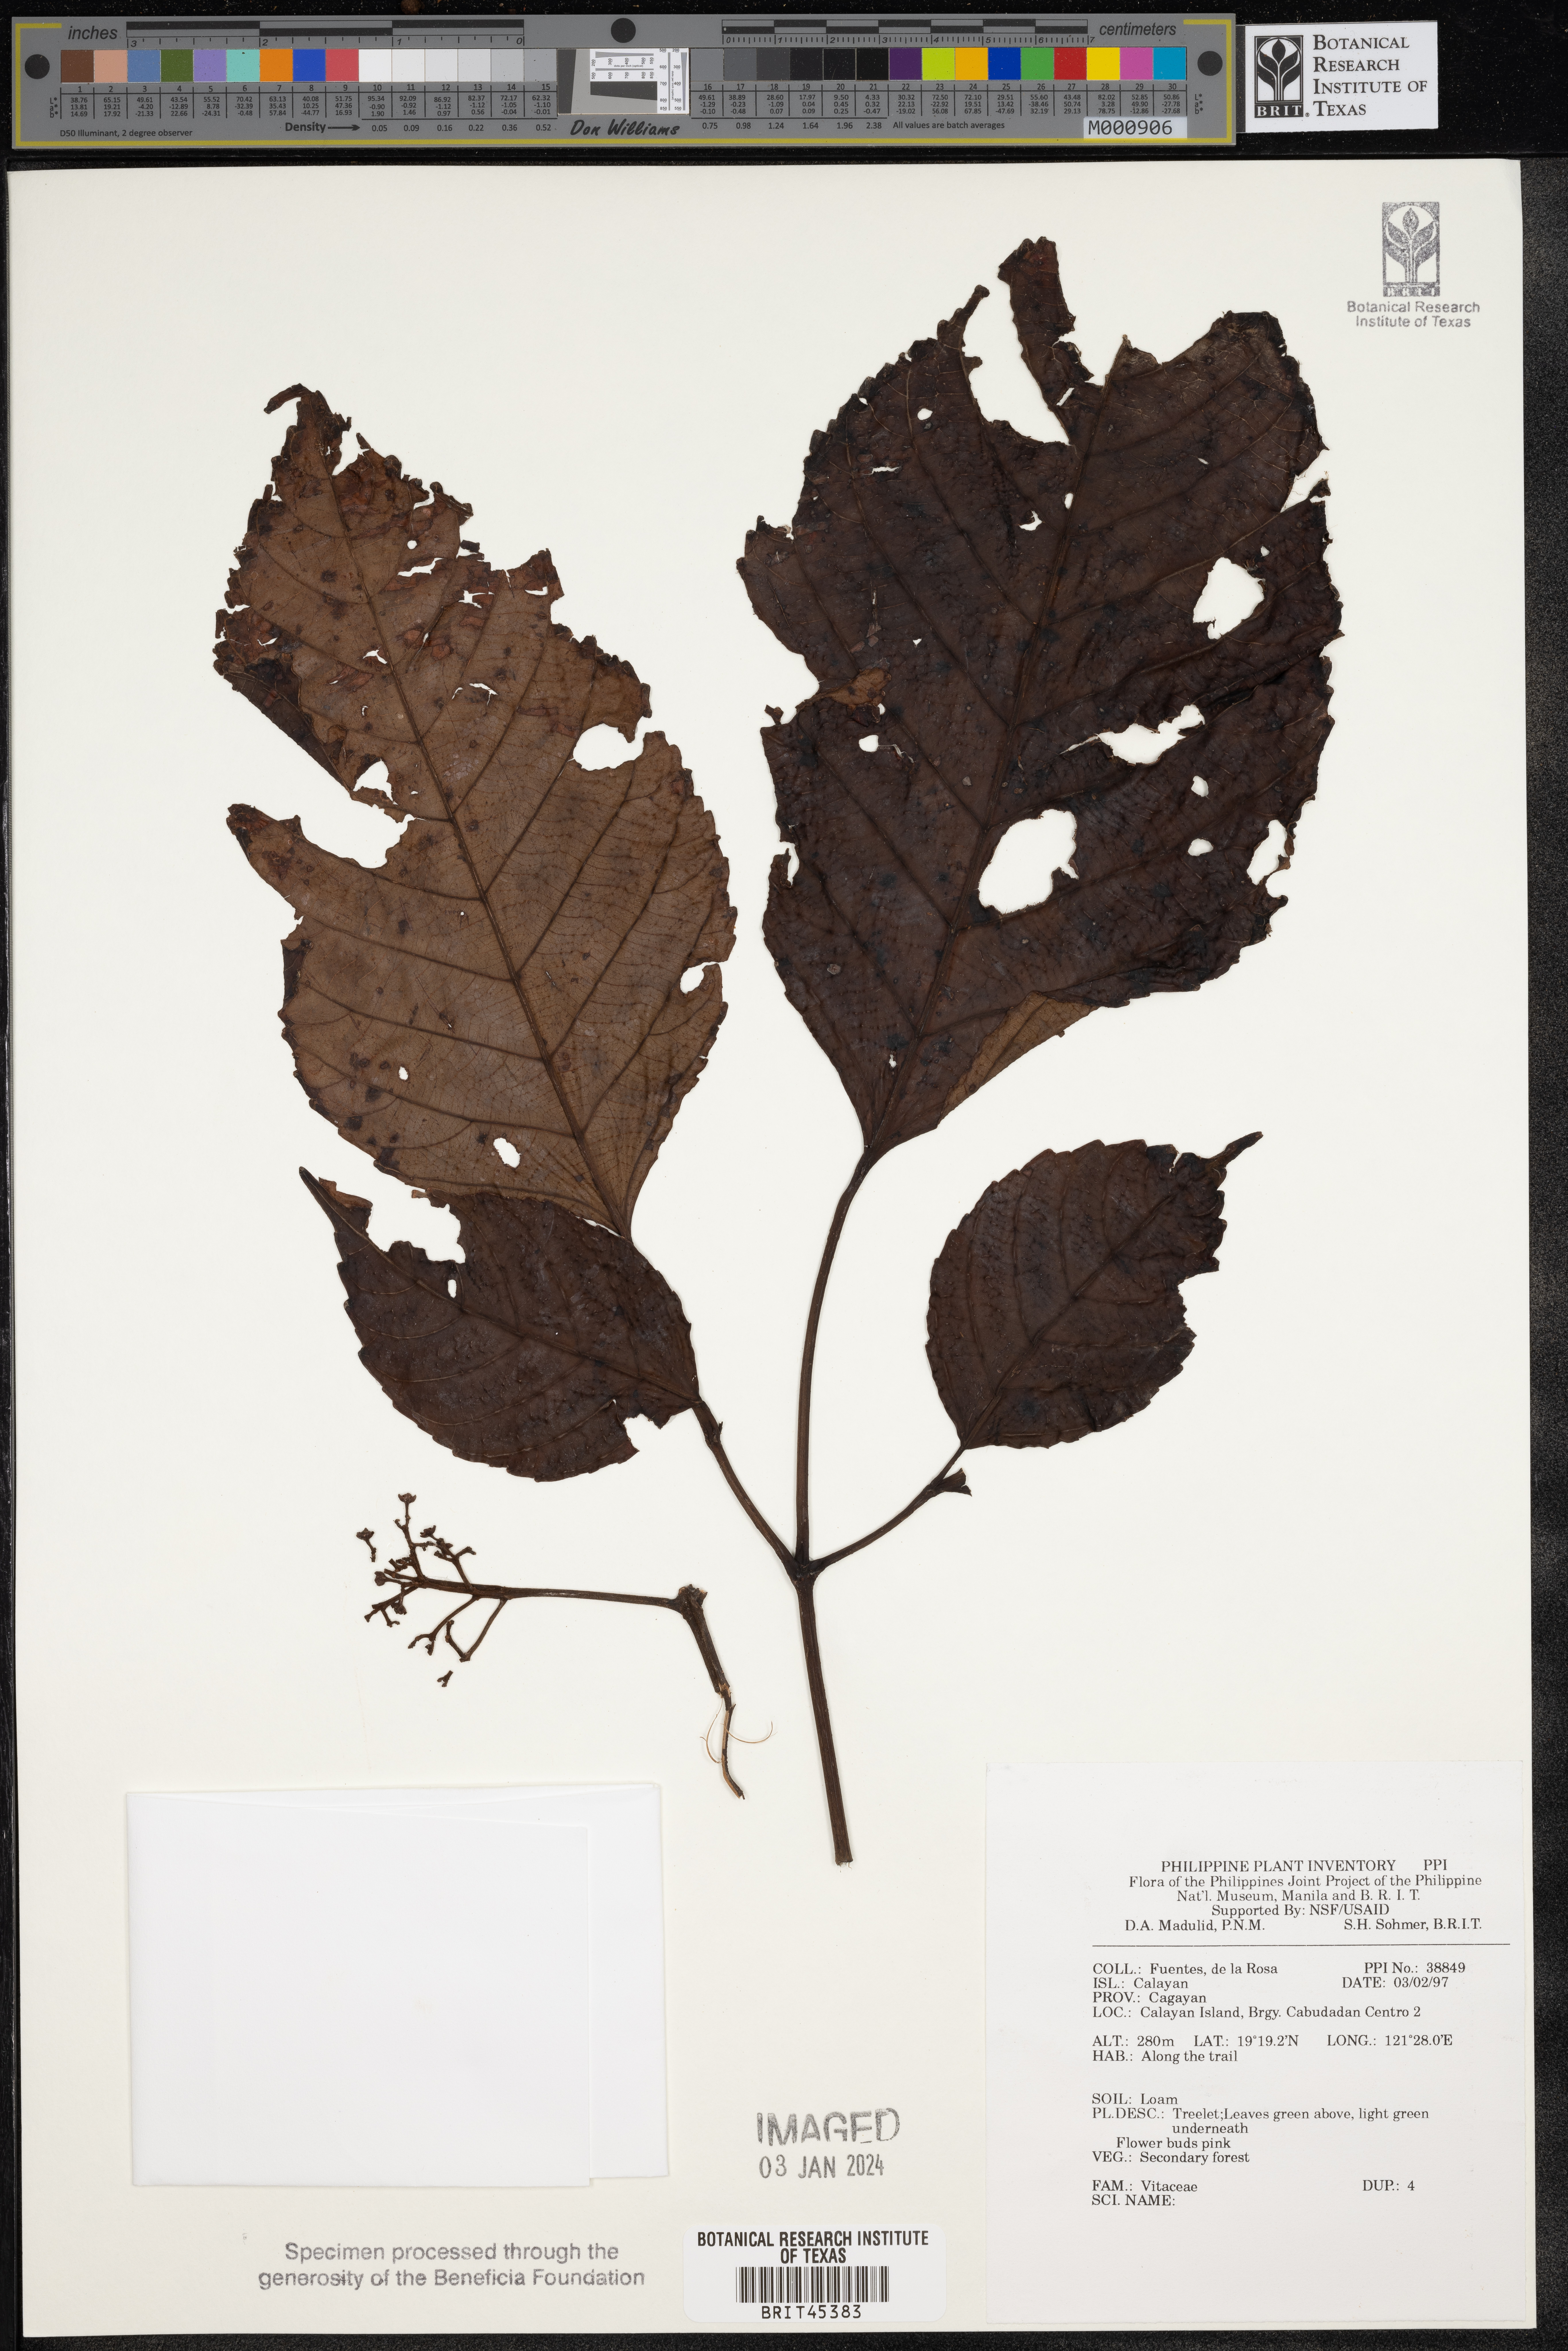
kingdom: Plantae
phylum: Tracheophyta
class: Magnoliopsida
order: Vitales
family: Vitaceae
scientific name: Vitaceae
